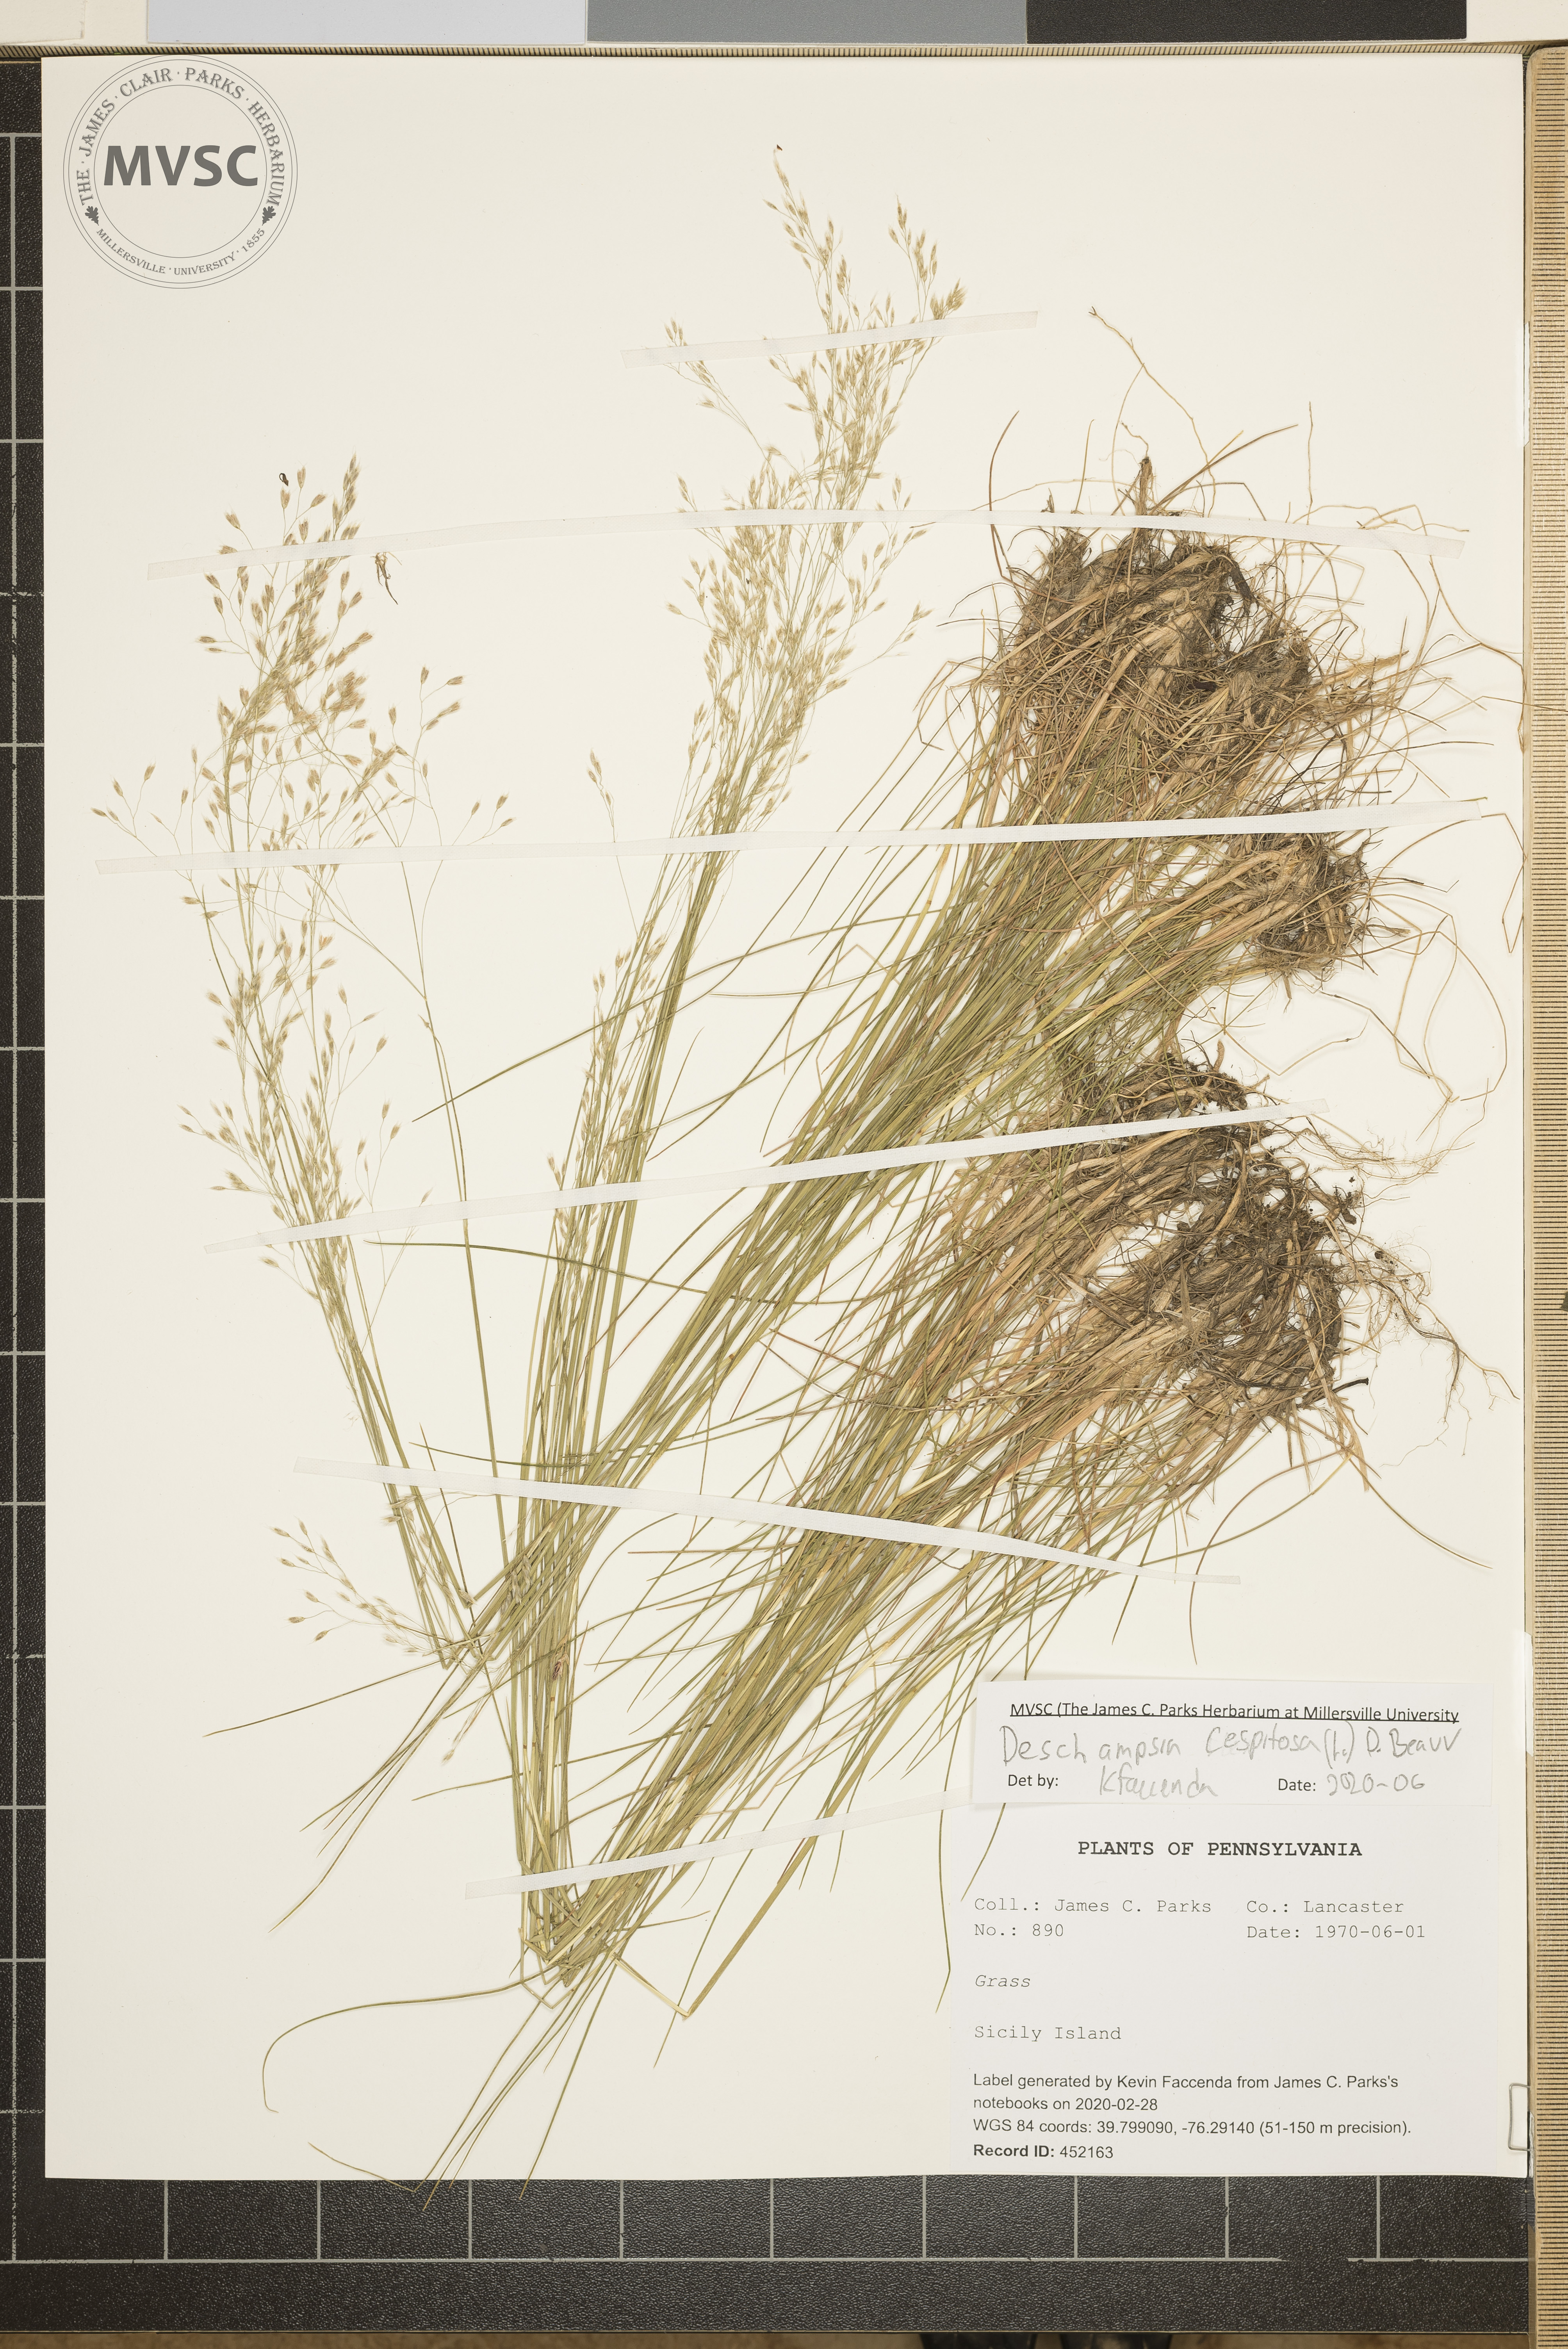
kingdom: Plantae
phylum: Tracheophyta
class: Liliopsida
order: Poales
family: Poaceae
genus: Deschampsia
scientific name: Deschampsia cespitosa
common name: Tufted hair-grass
